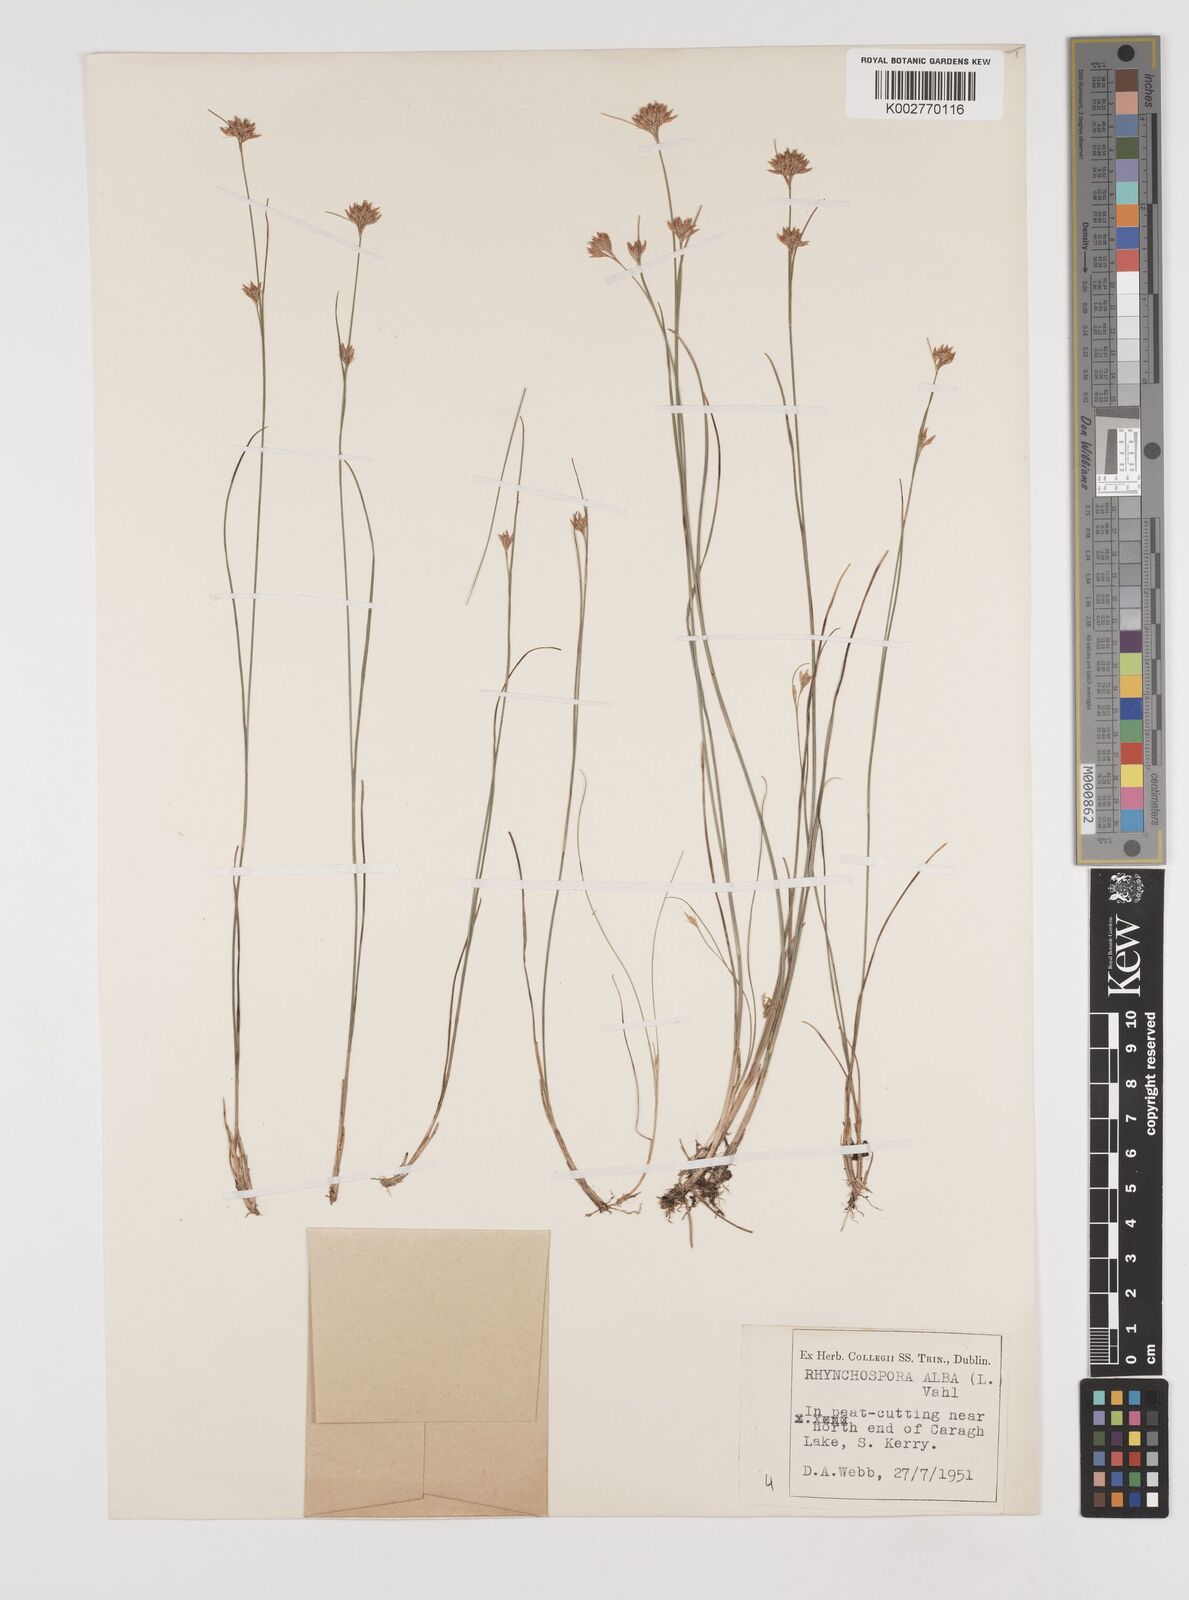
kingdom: Plantae
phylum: Tracheophyta
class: Liliopsida
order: Poales
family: Cyperaceae
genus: Rhynchospora
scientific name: Rhynchospora alba
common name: White beak-sedge
